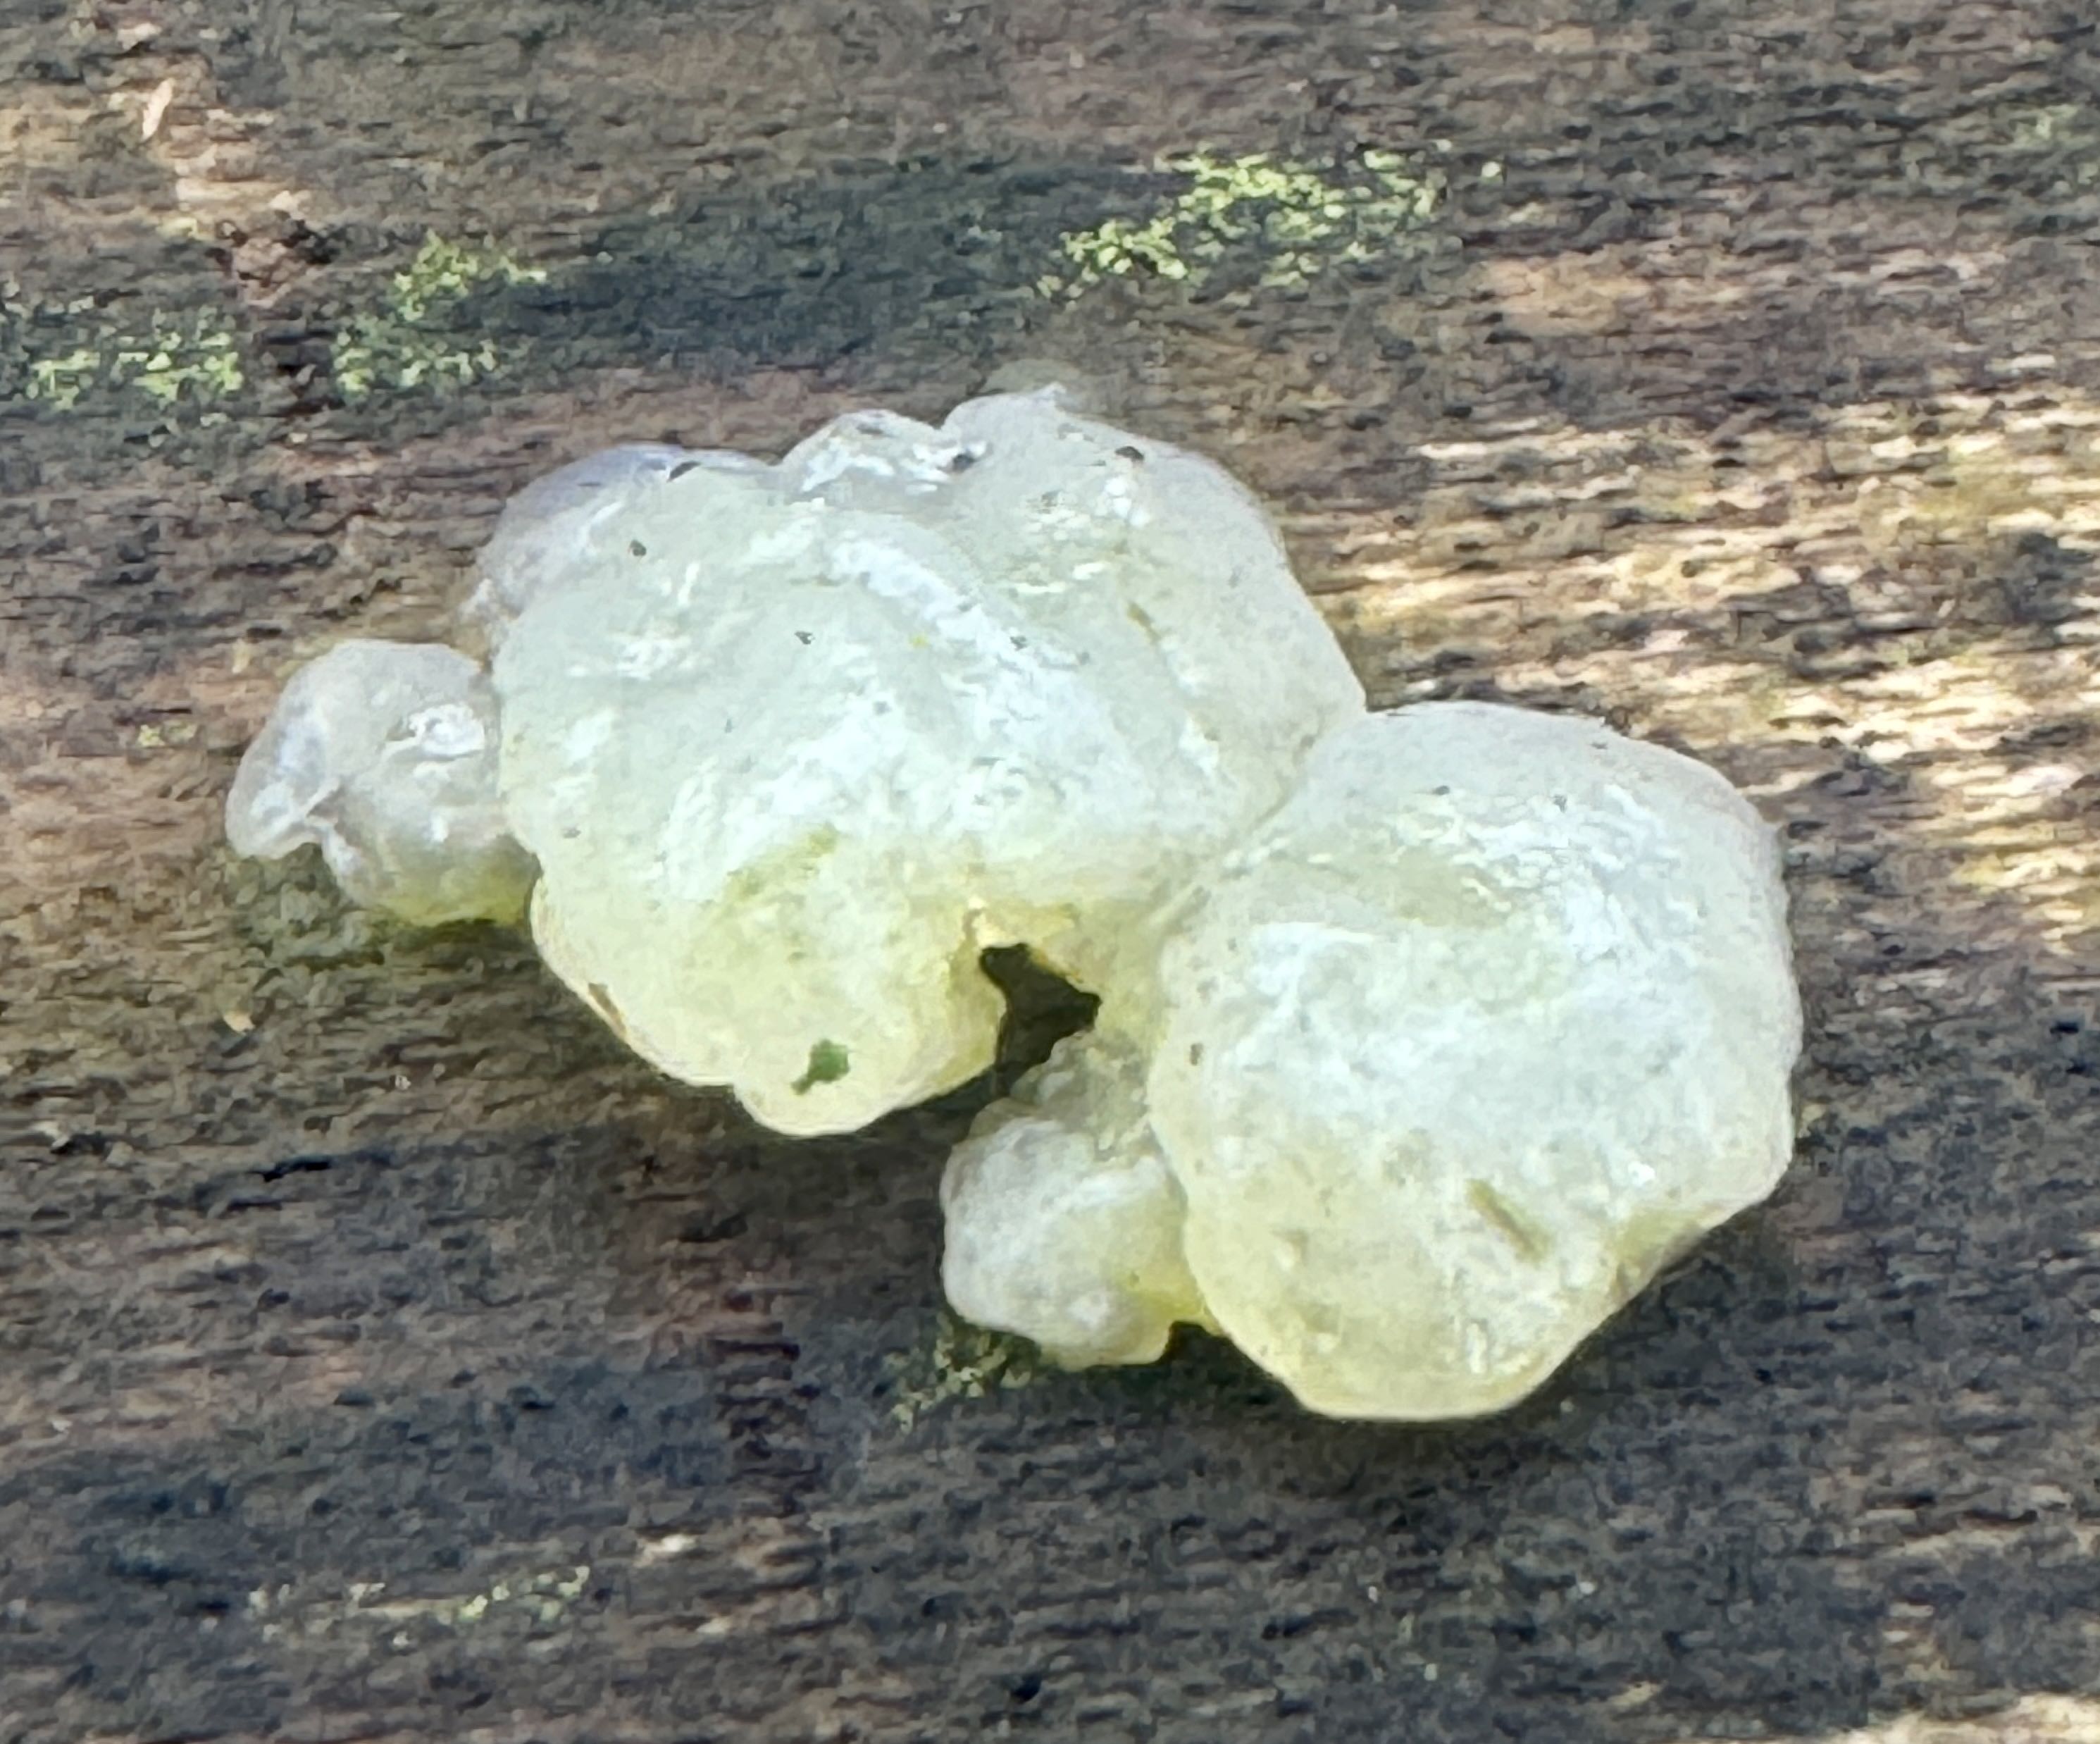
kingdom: Fungi
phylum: Basidiomycota
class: Agaricomycetes
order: Auriculariales
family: Hyaloriaceae
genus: Myxarium
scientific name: Myxarium nucleatum
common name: klar bævretop
